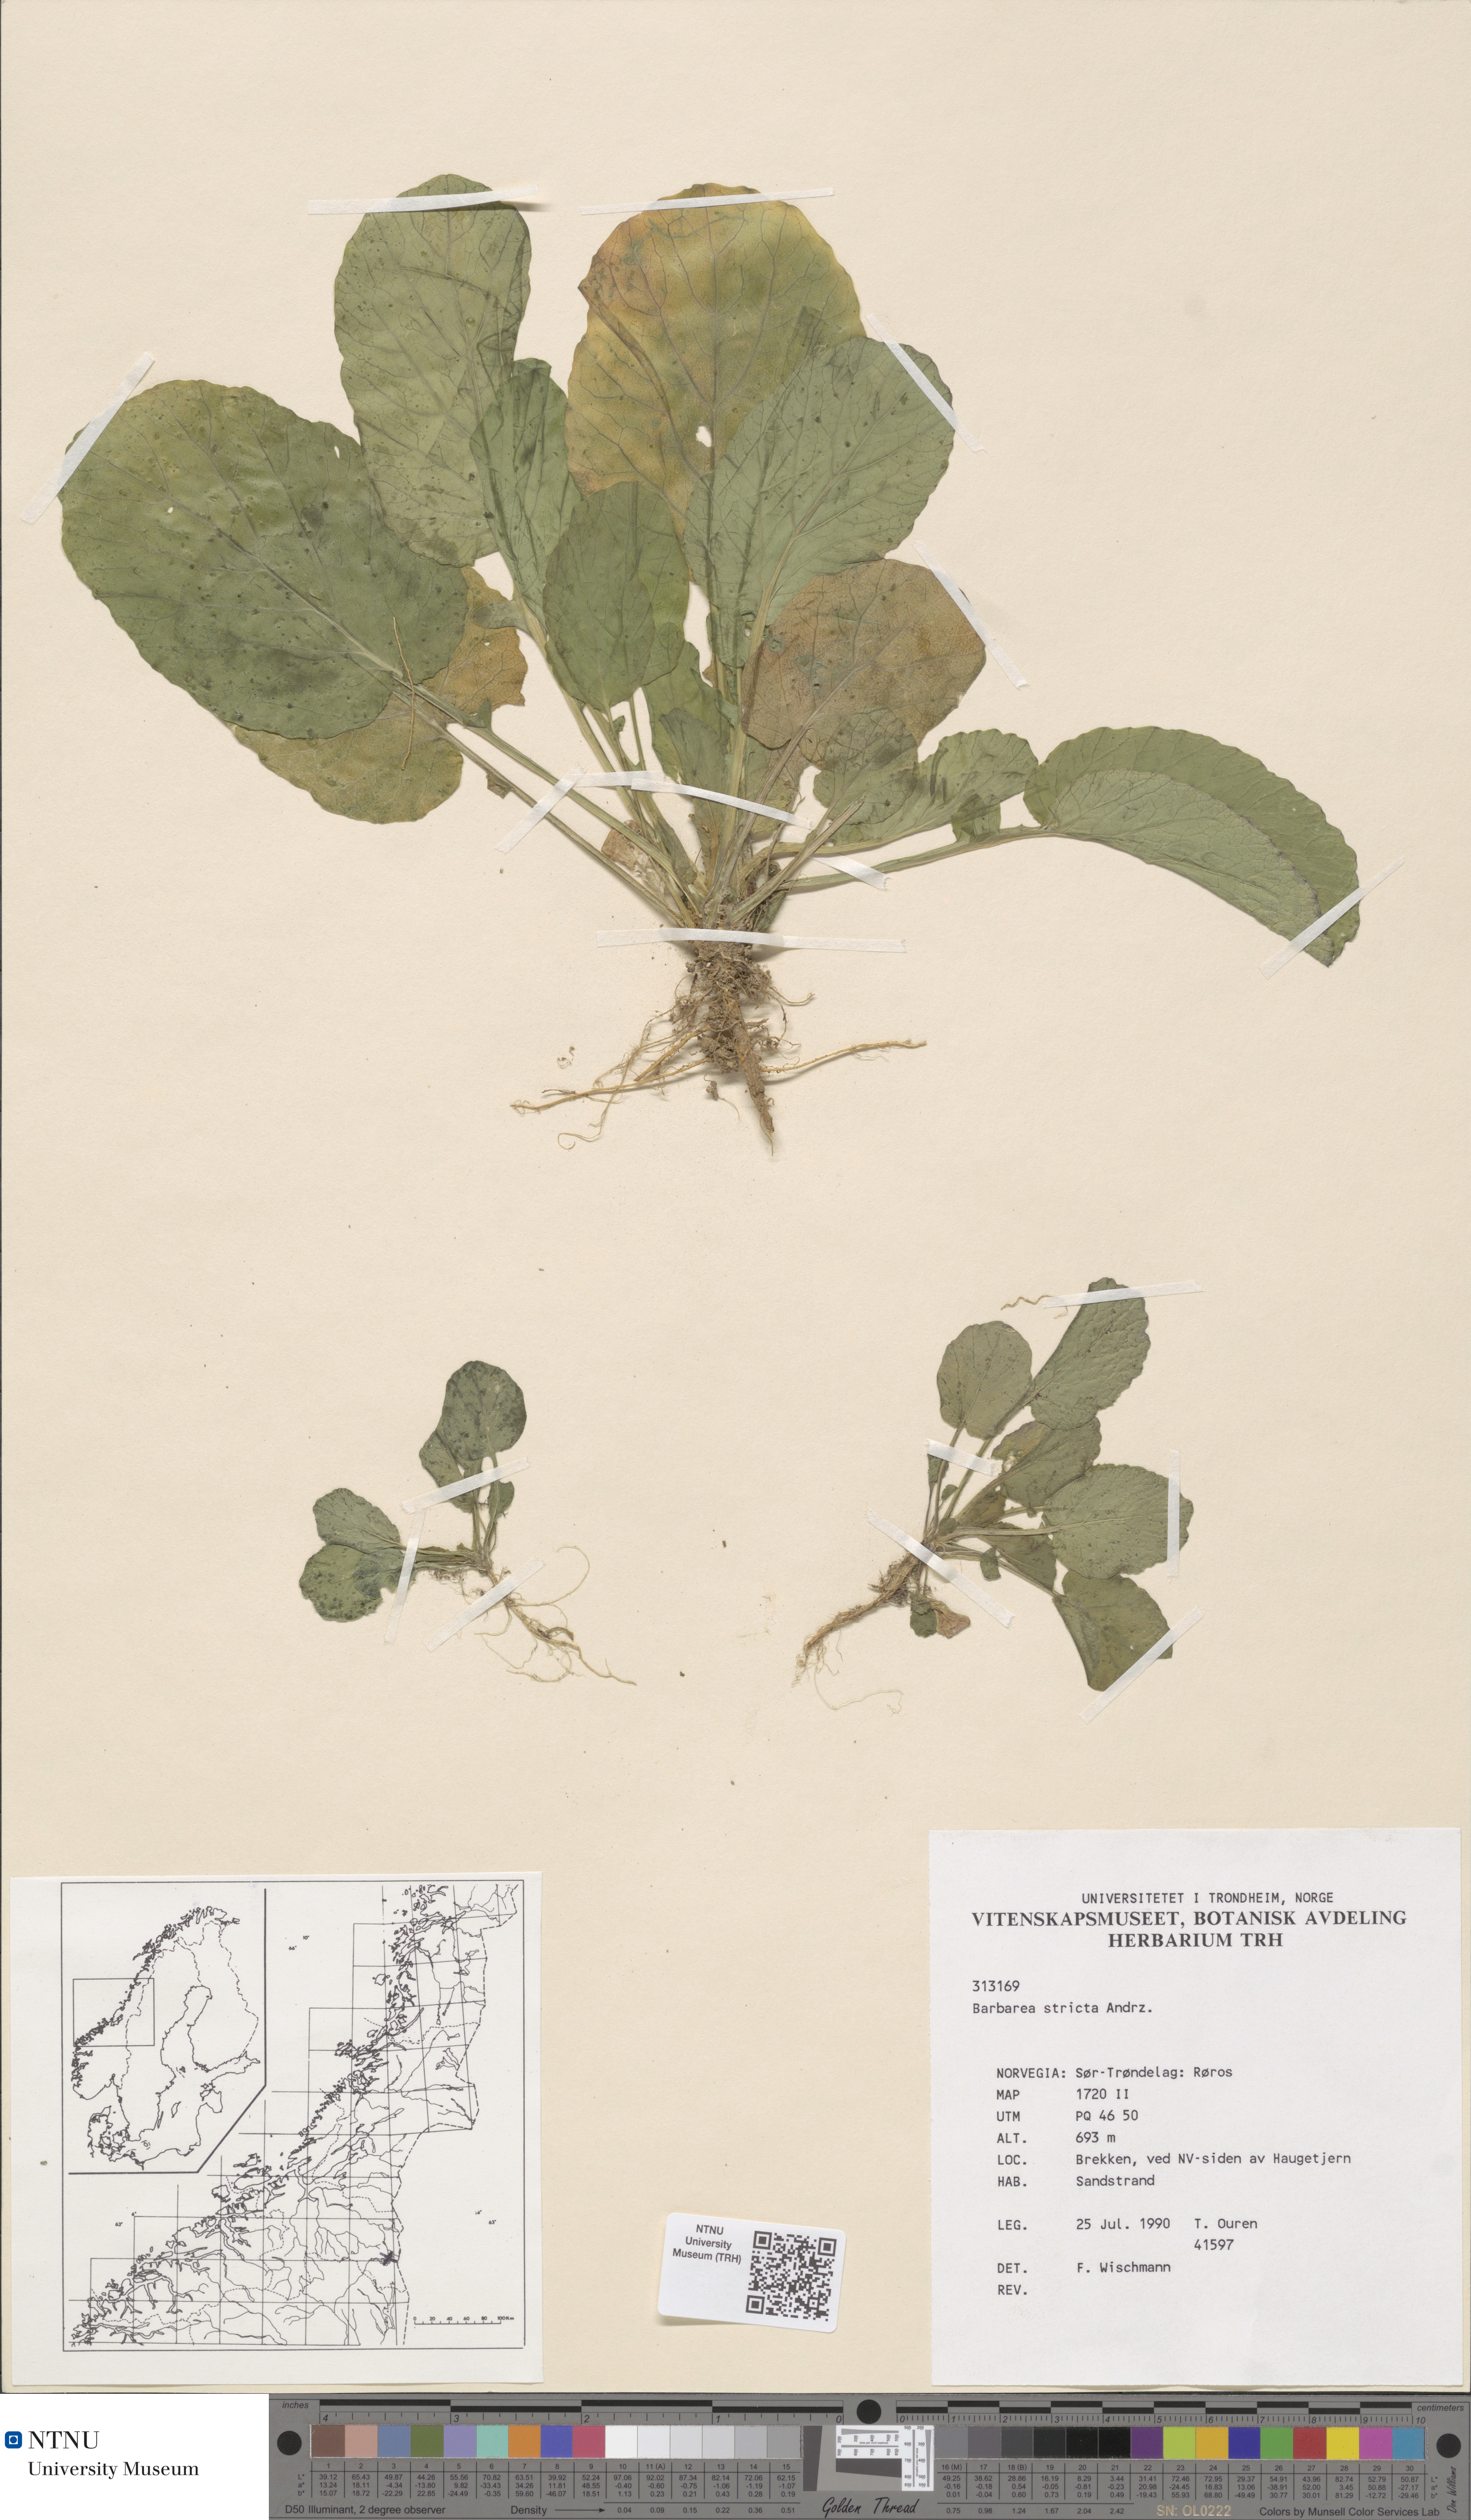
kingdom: Plantae
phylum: Tracheophyta
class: Magnoliopsida
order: Brassicales
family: Brassicaceae
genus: Barbarea
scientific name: Barbarea stricta
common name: Small-flowered winter-cress
